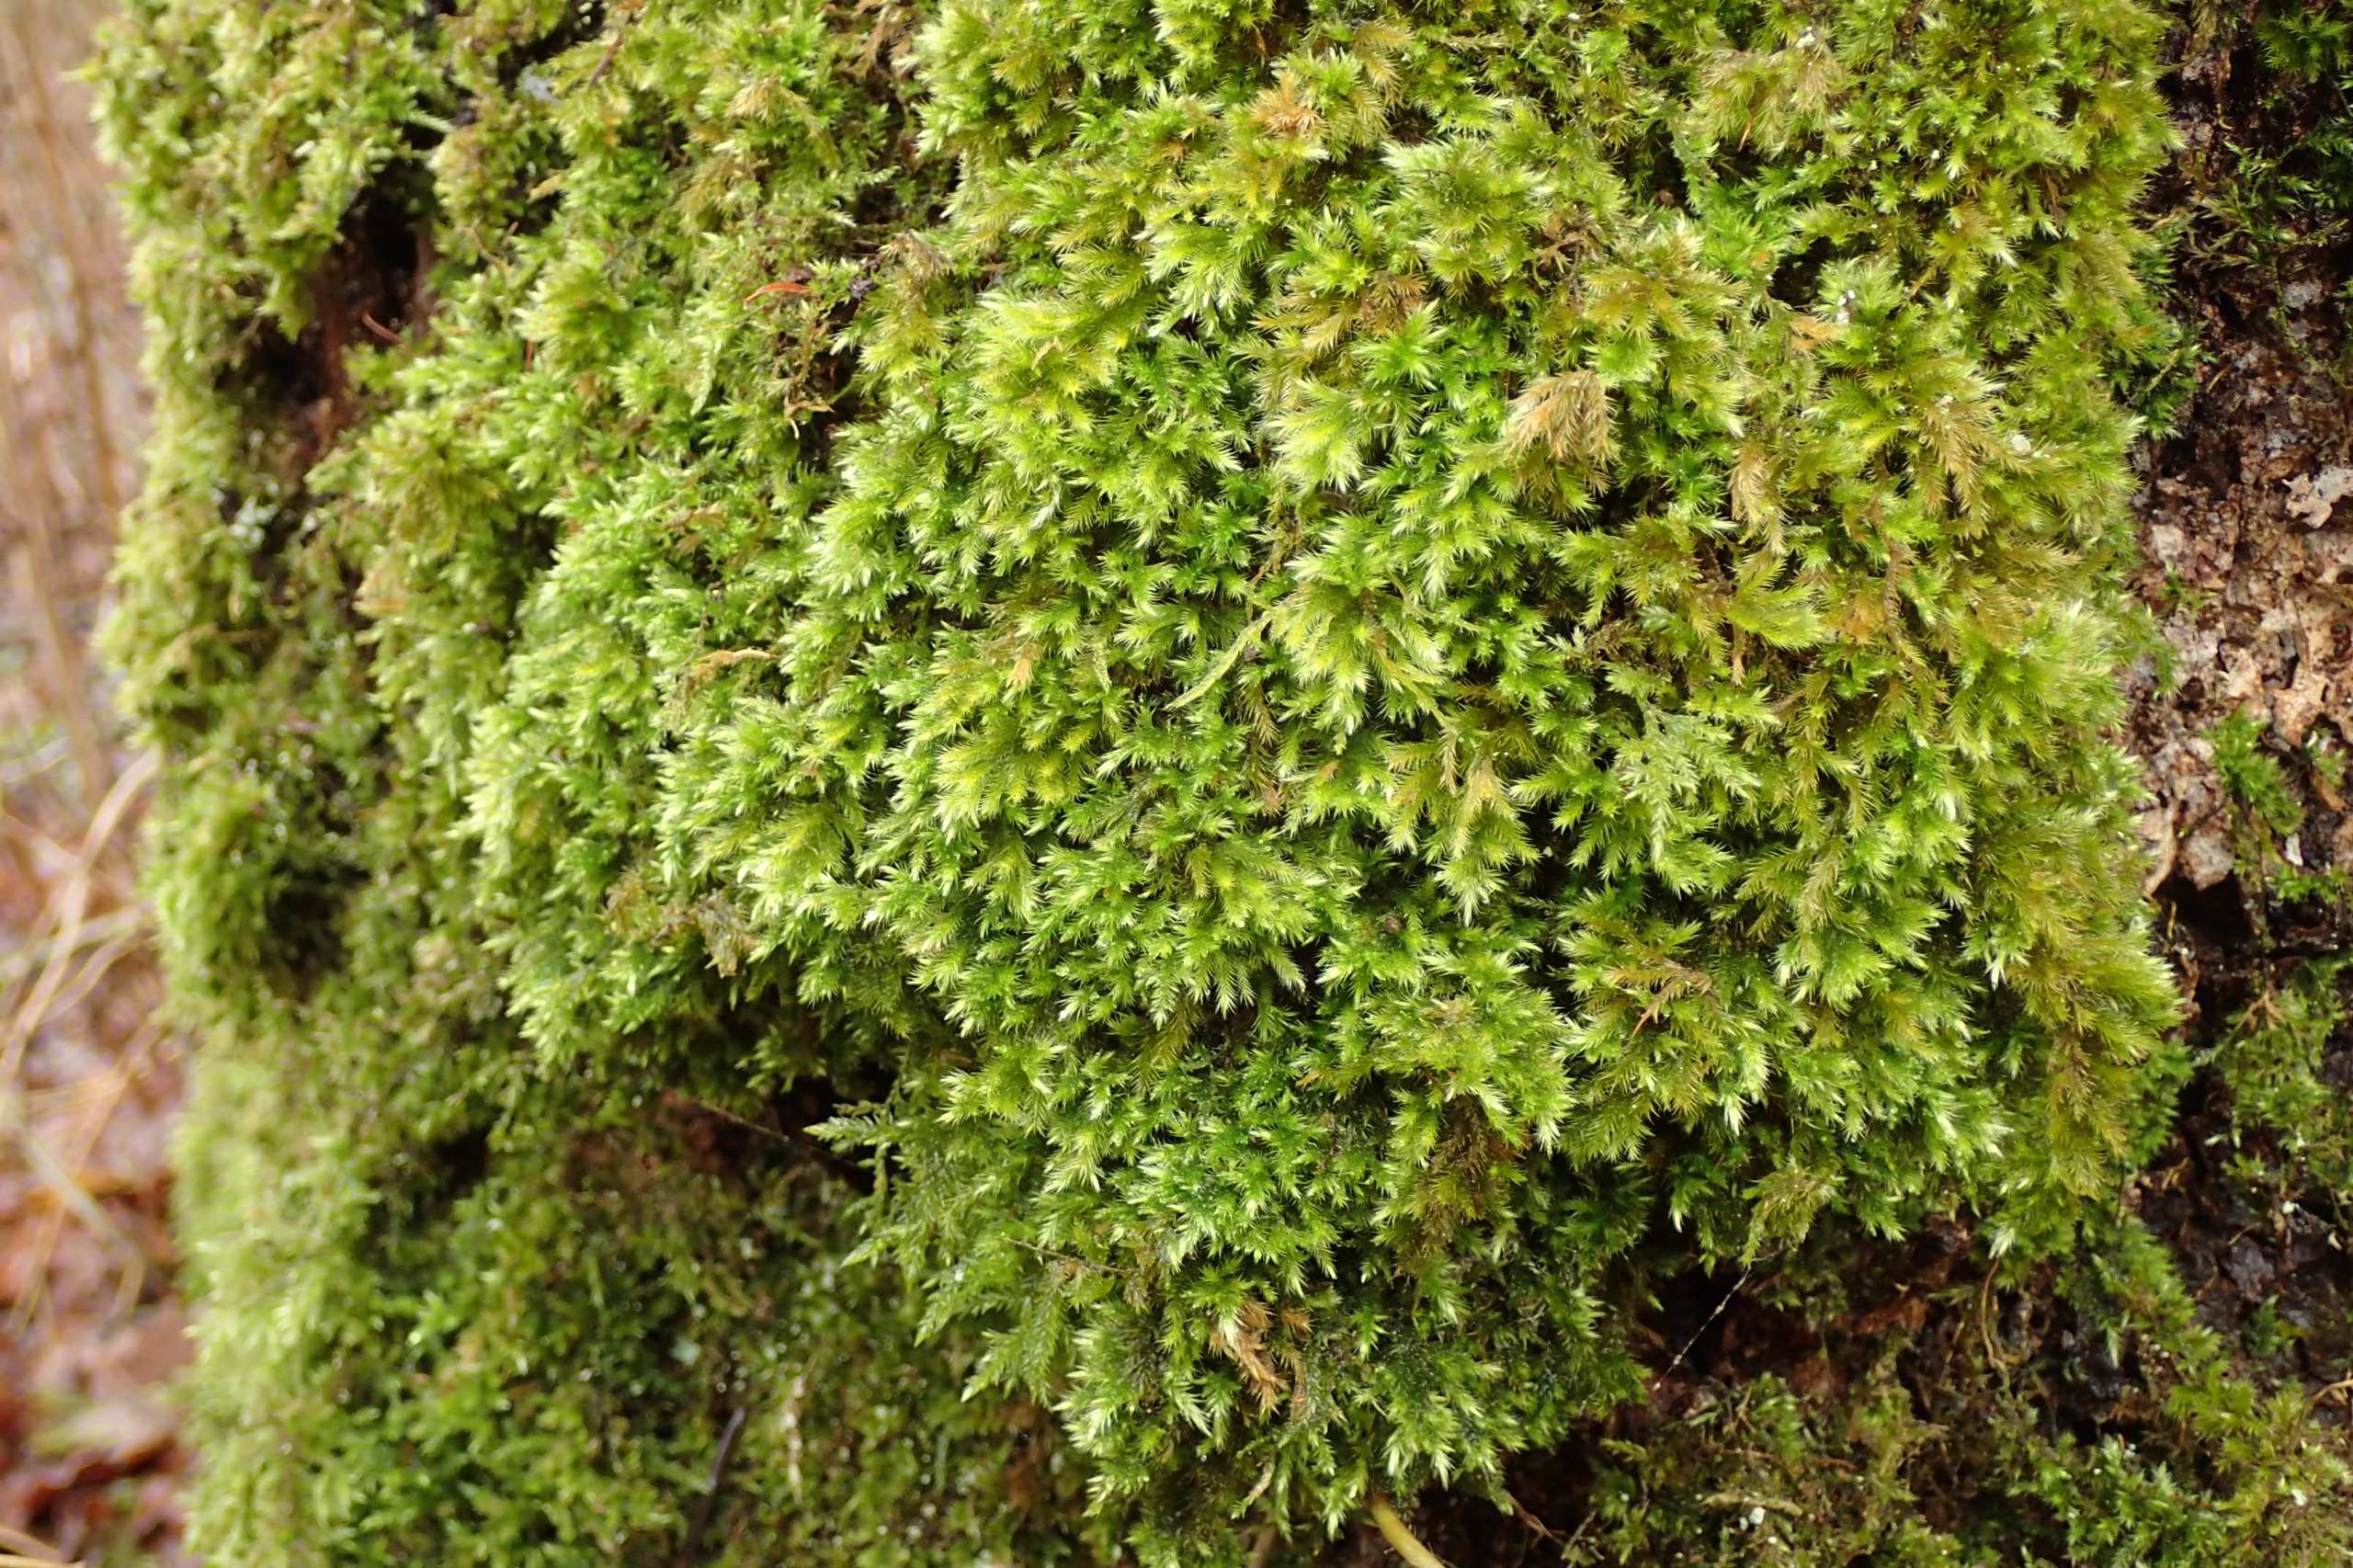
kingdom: Plantae
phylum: Bryophyta
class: Bryopsida
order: Hypnales
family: Brachytheciaceae
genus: Homalothecium
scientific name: Homalothecium sericeum
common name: Krybende silkemos
